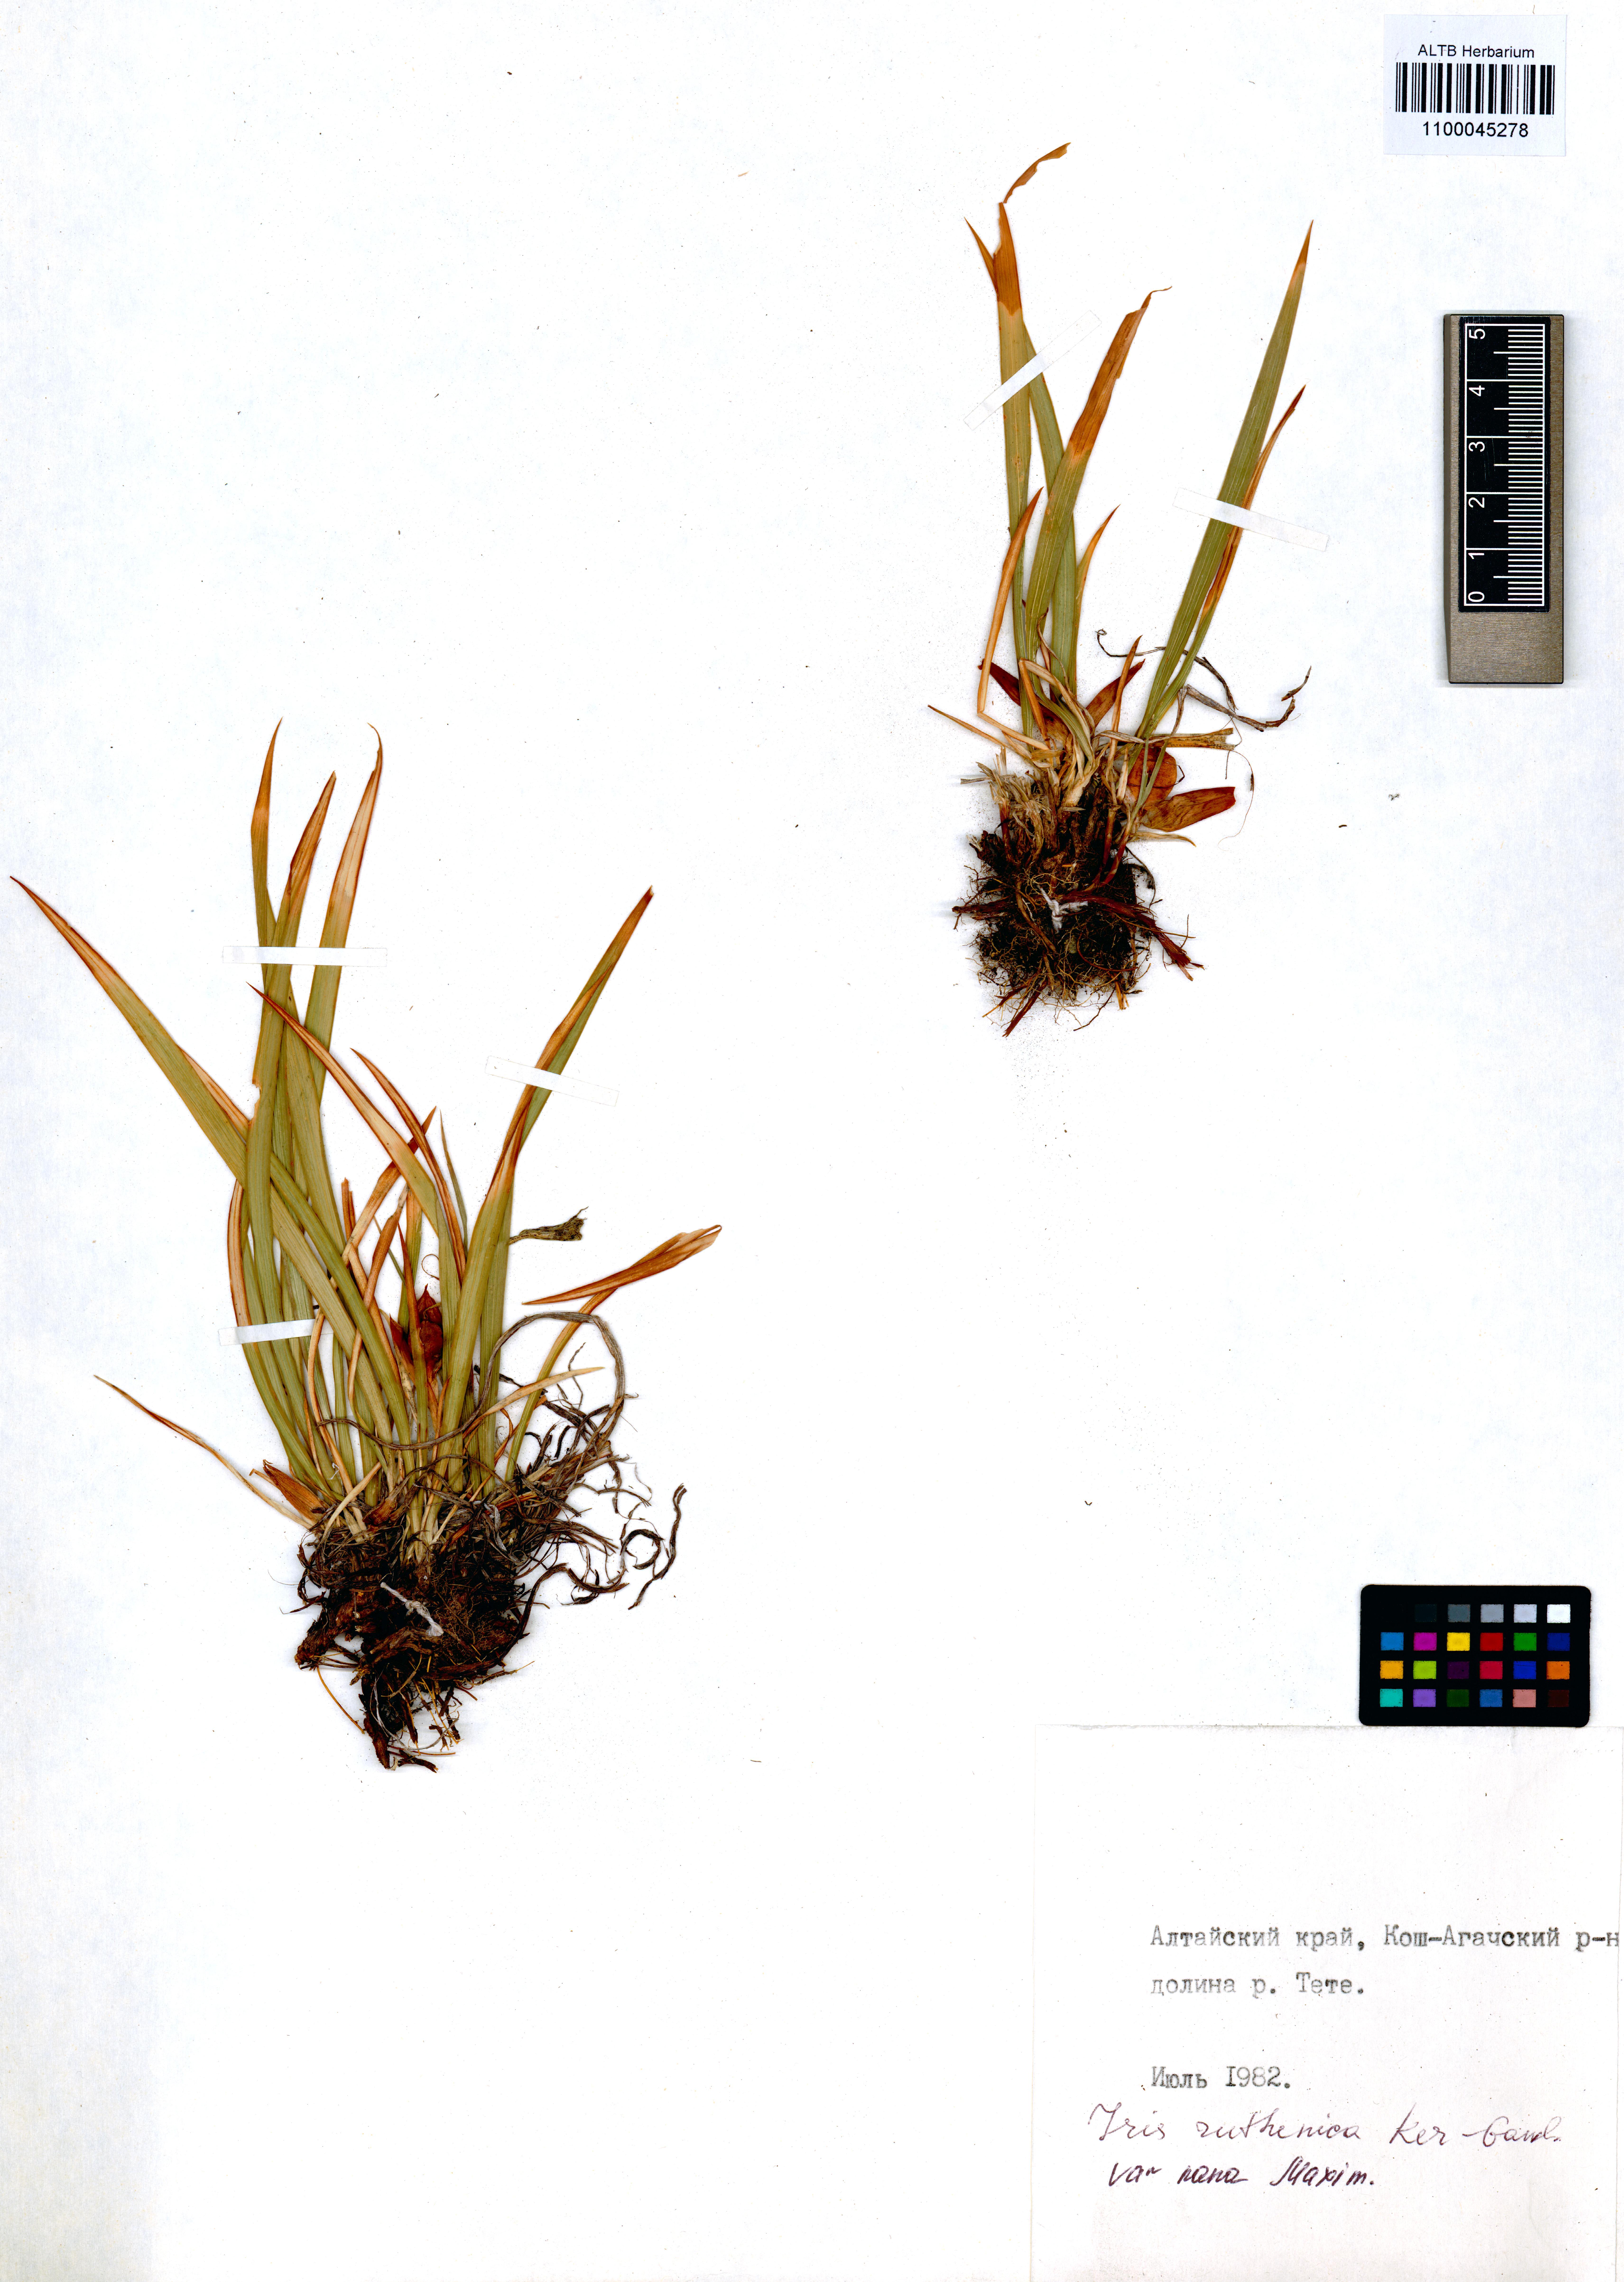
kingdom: Plantae
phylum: Tracheophyta
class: Liliopsida
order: Asparagales
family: Iridaceae
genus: Iris
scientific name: Iris ruthenica
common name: Purple-bract iris
